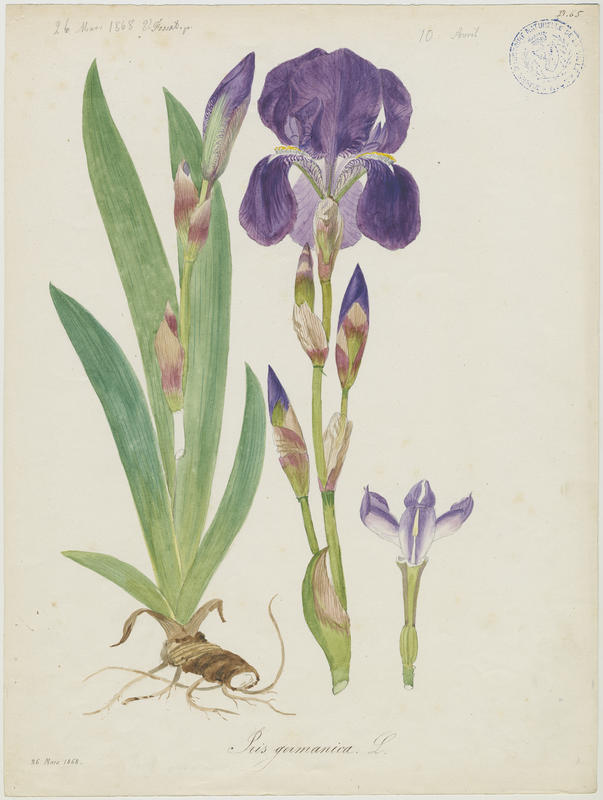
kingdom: Plantae
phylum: Tracheophyta
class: Liliopsida
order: Asparagales
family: Iridaceae
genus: Iris
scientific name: Iris germanica
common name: German iris
